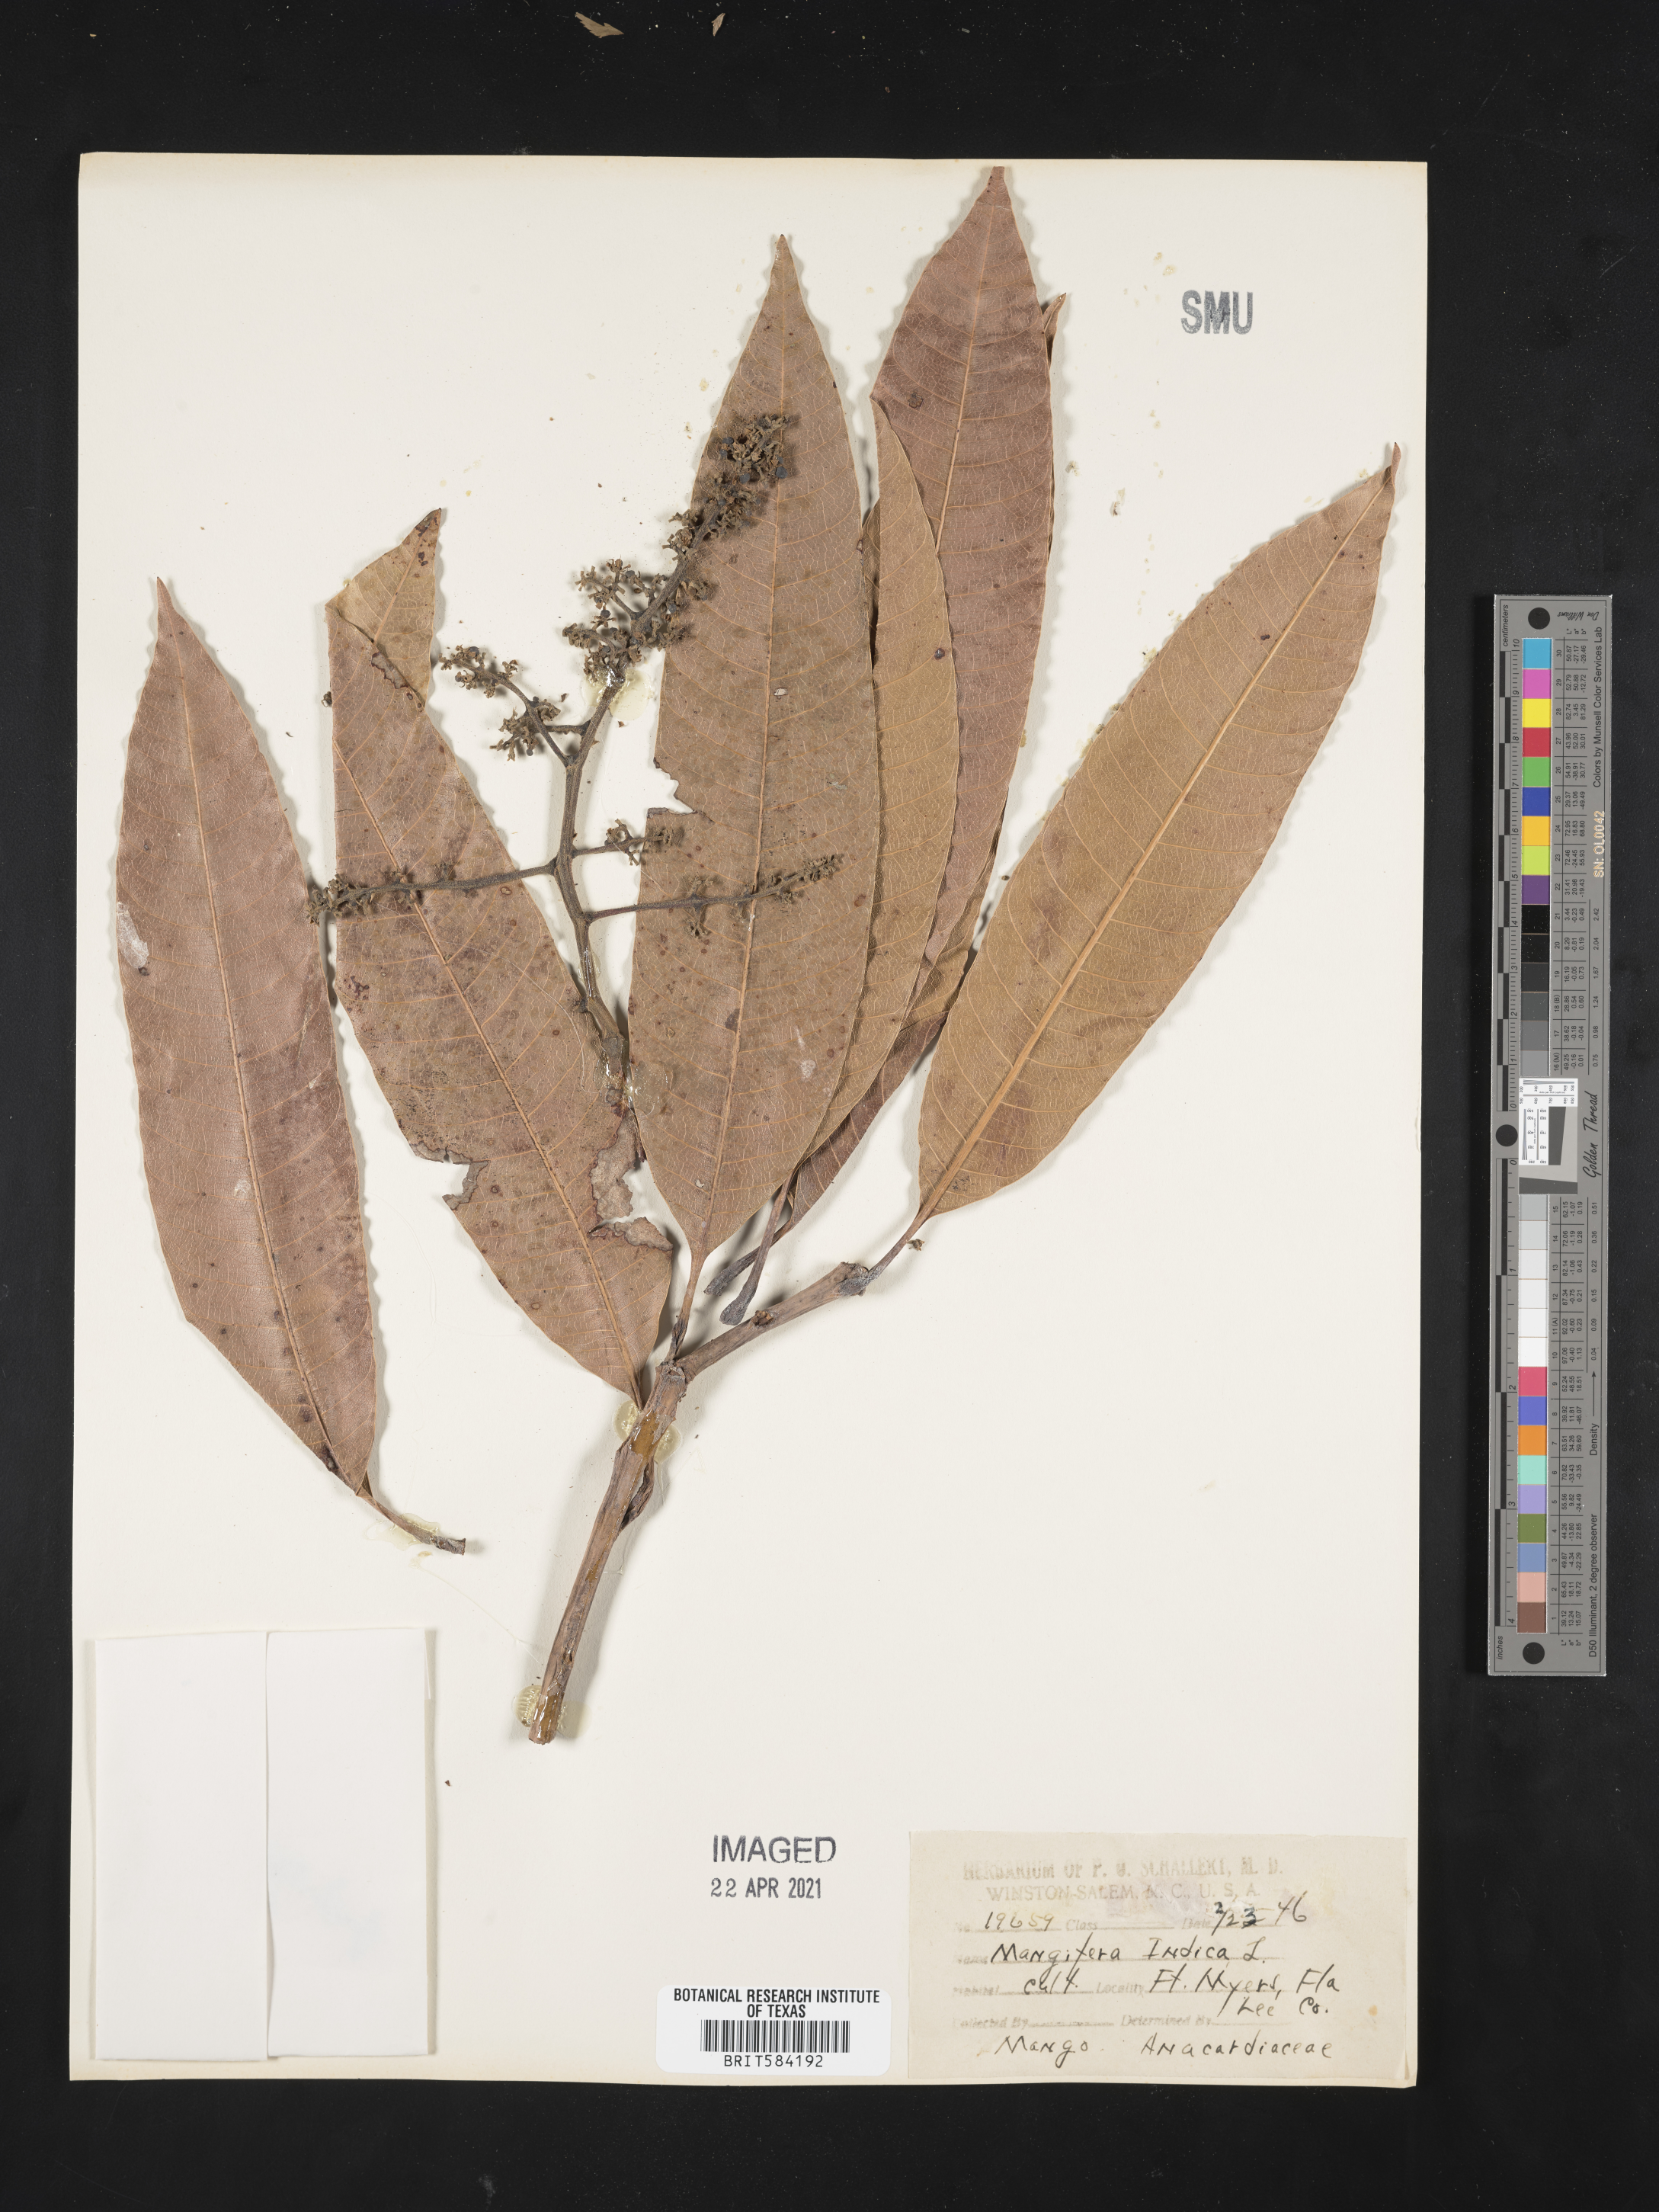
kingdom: Plantae
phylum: Tracheophyta
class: Magnoliopsida
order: Sapindales
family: Anacardiaceae
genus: Mangifera
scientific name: Mangifera sylvatica
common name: Nepal mango
